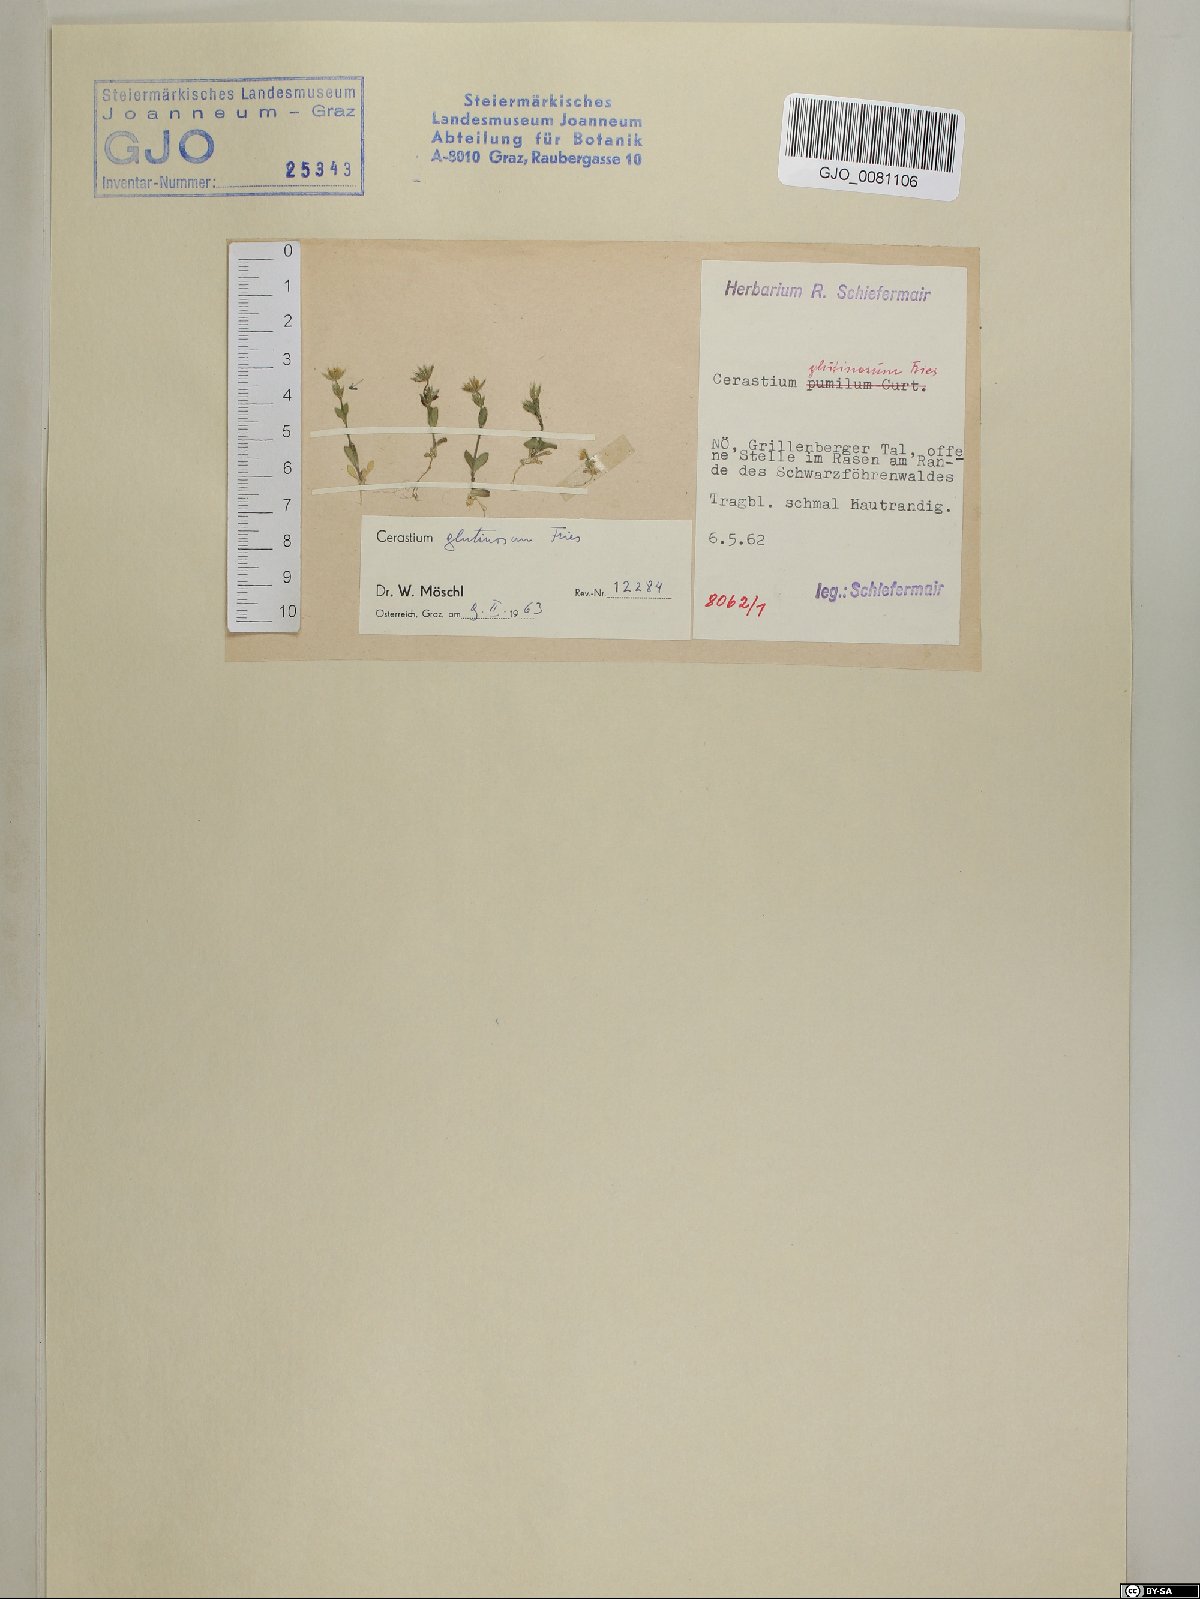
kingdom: Plantae
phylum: Tracheophyta
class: Magnoliopsida
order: Caryophyllales
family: Caryophyllaceae
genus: Cerastium
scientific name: Cerastium glutinosum
